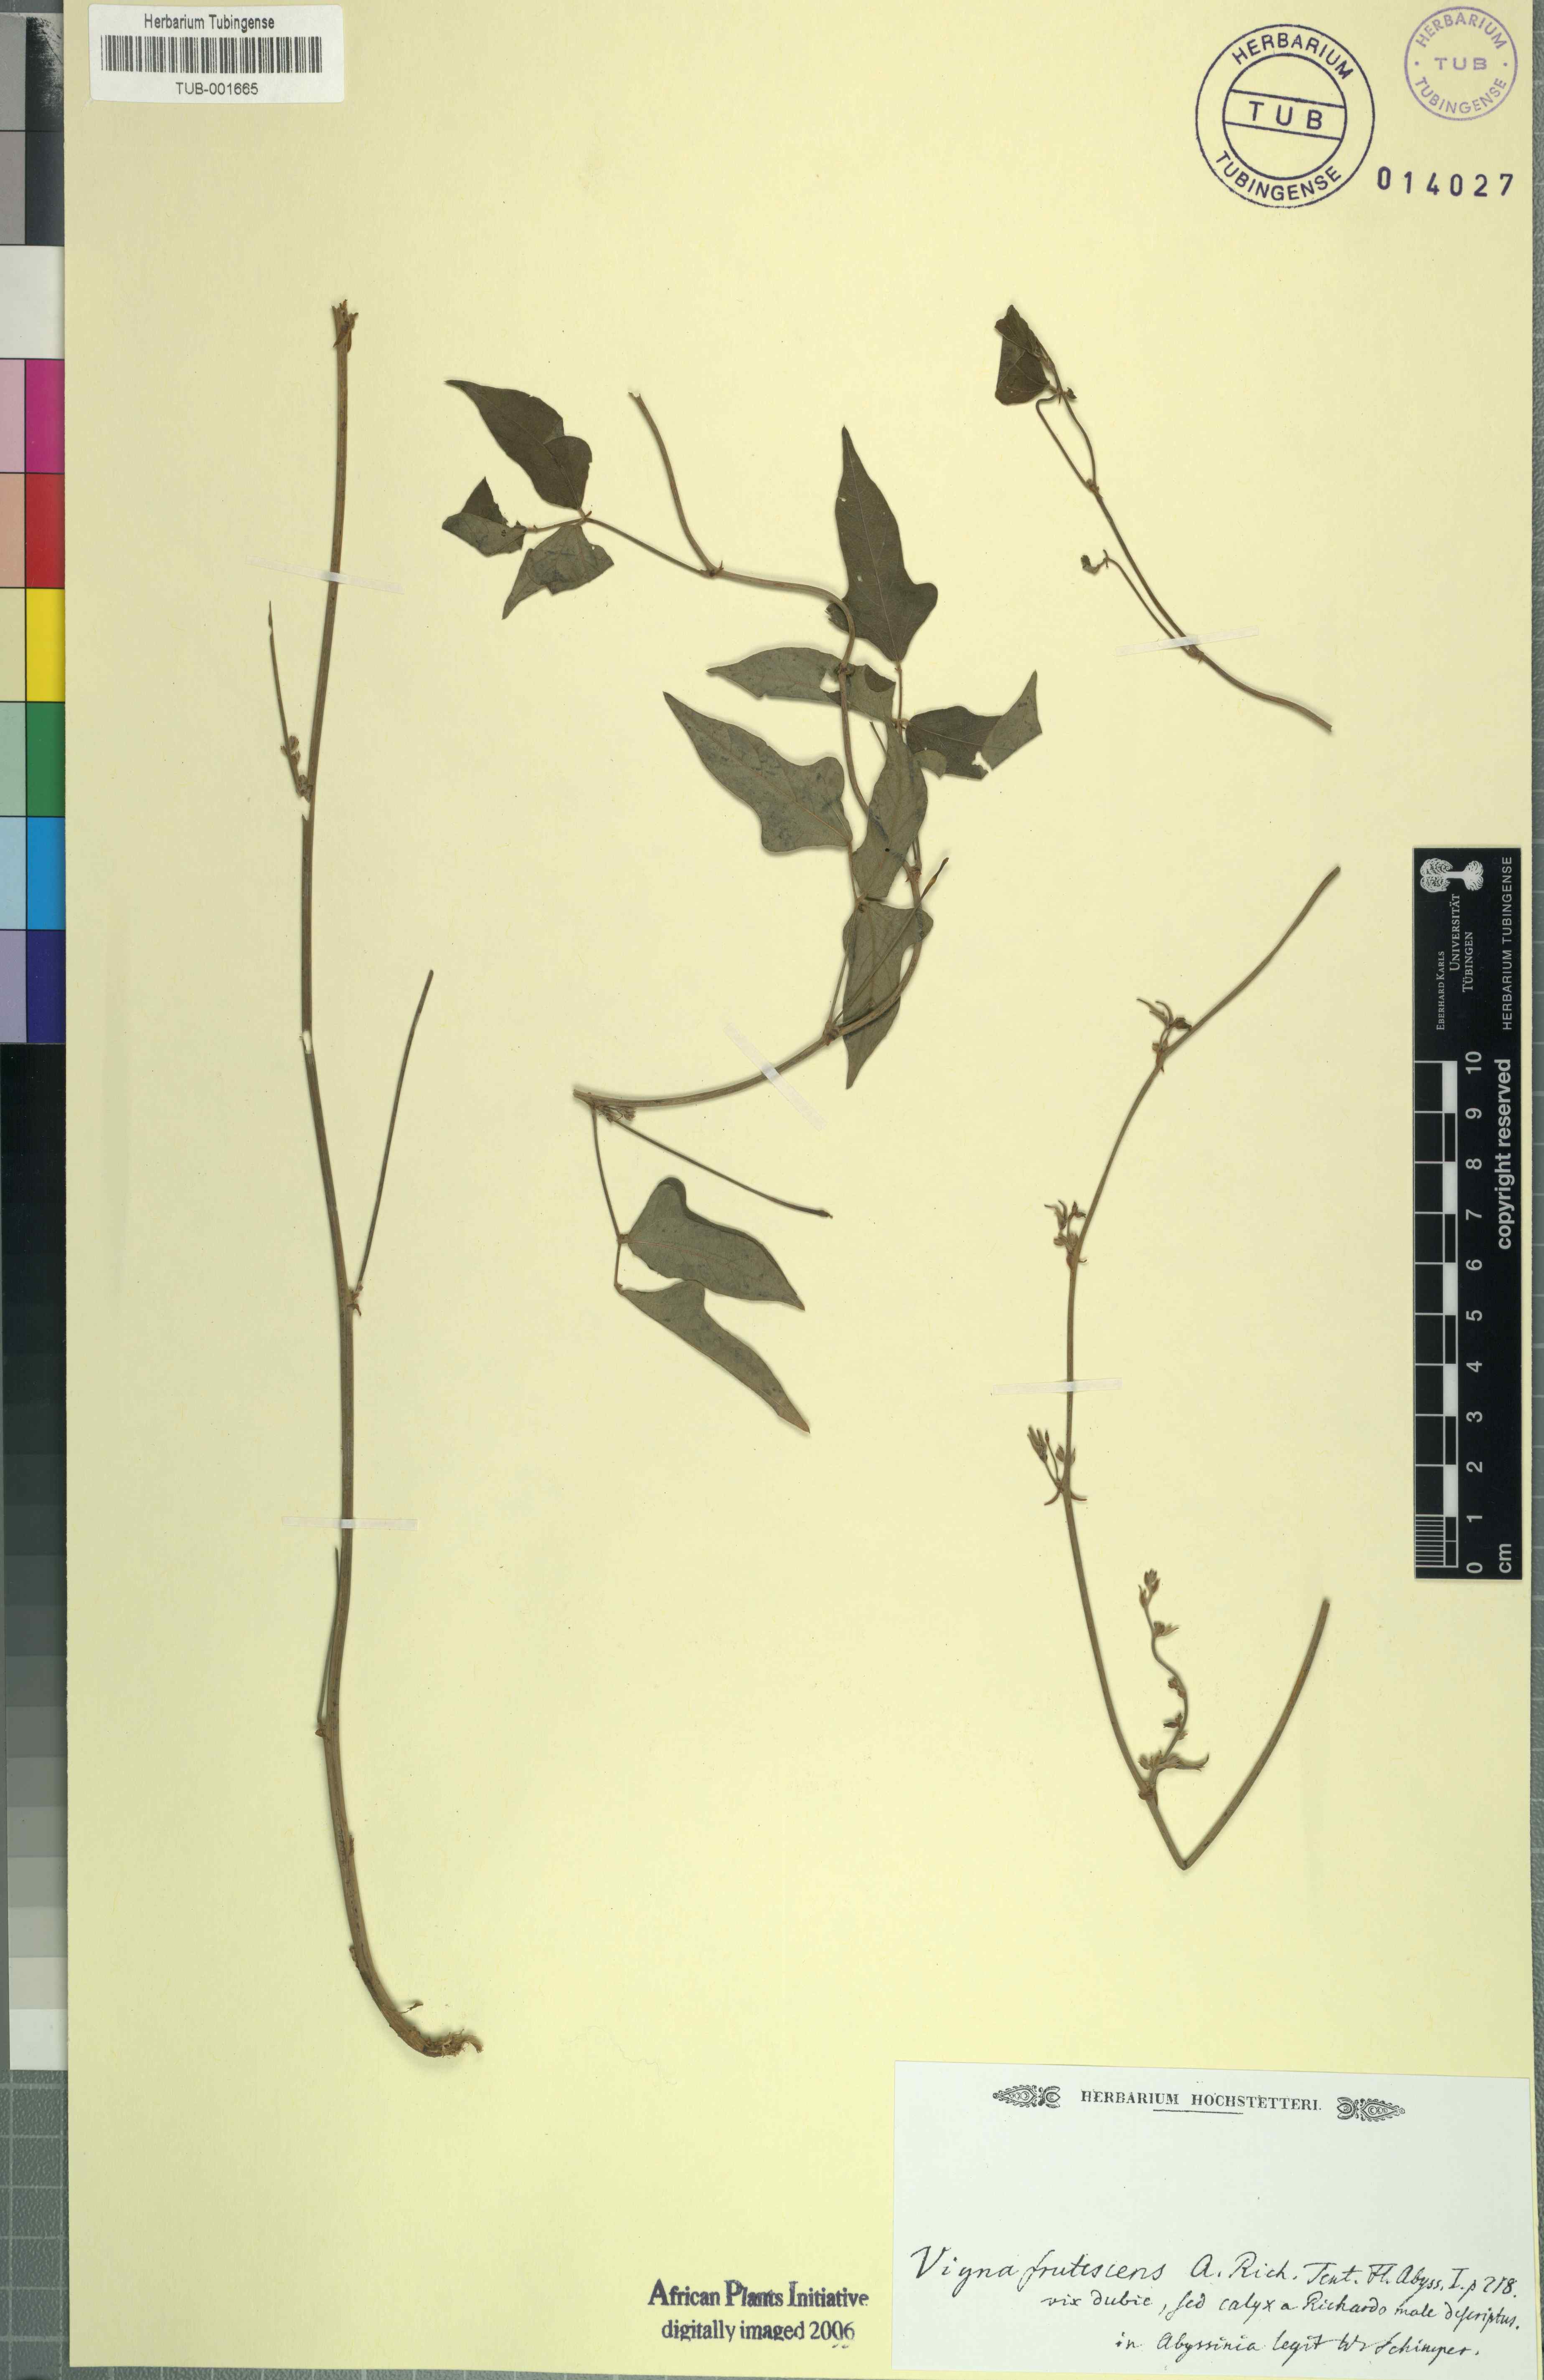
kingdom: Plantae
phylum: Tracheophyta
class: Magnoliopsida
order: Fabales
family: Fabaceae
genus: Vigna
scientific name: Vigna frutescens
